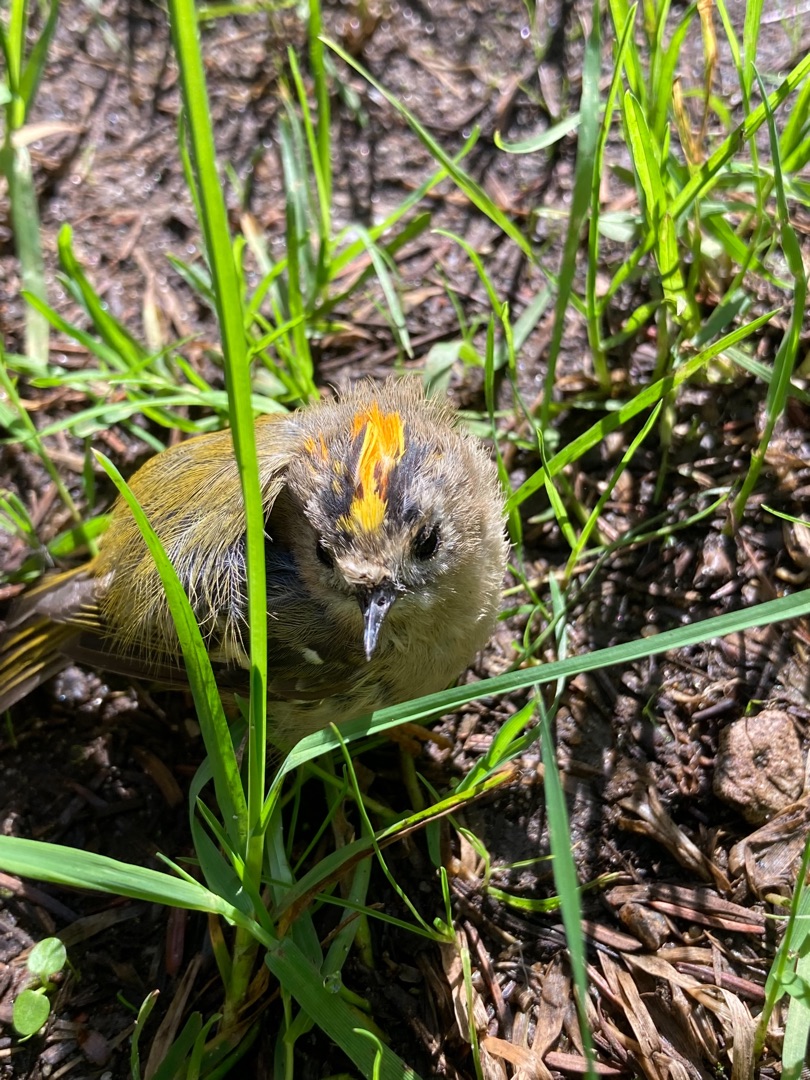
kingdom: Animalia
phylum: Chordata
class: Aves
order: Passeriformes
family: Regulidae
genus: Regulus
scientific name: Regulus regulus
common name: Fuglekonge
